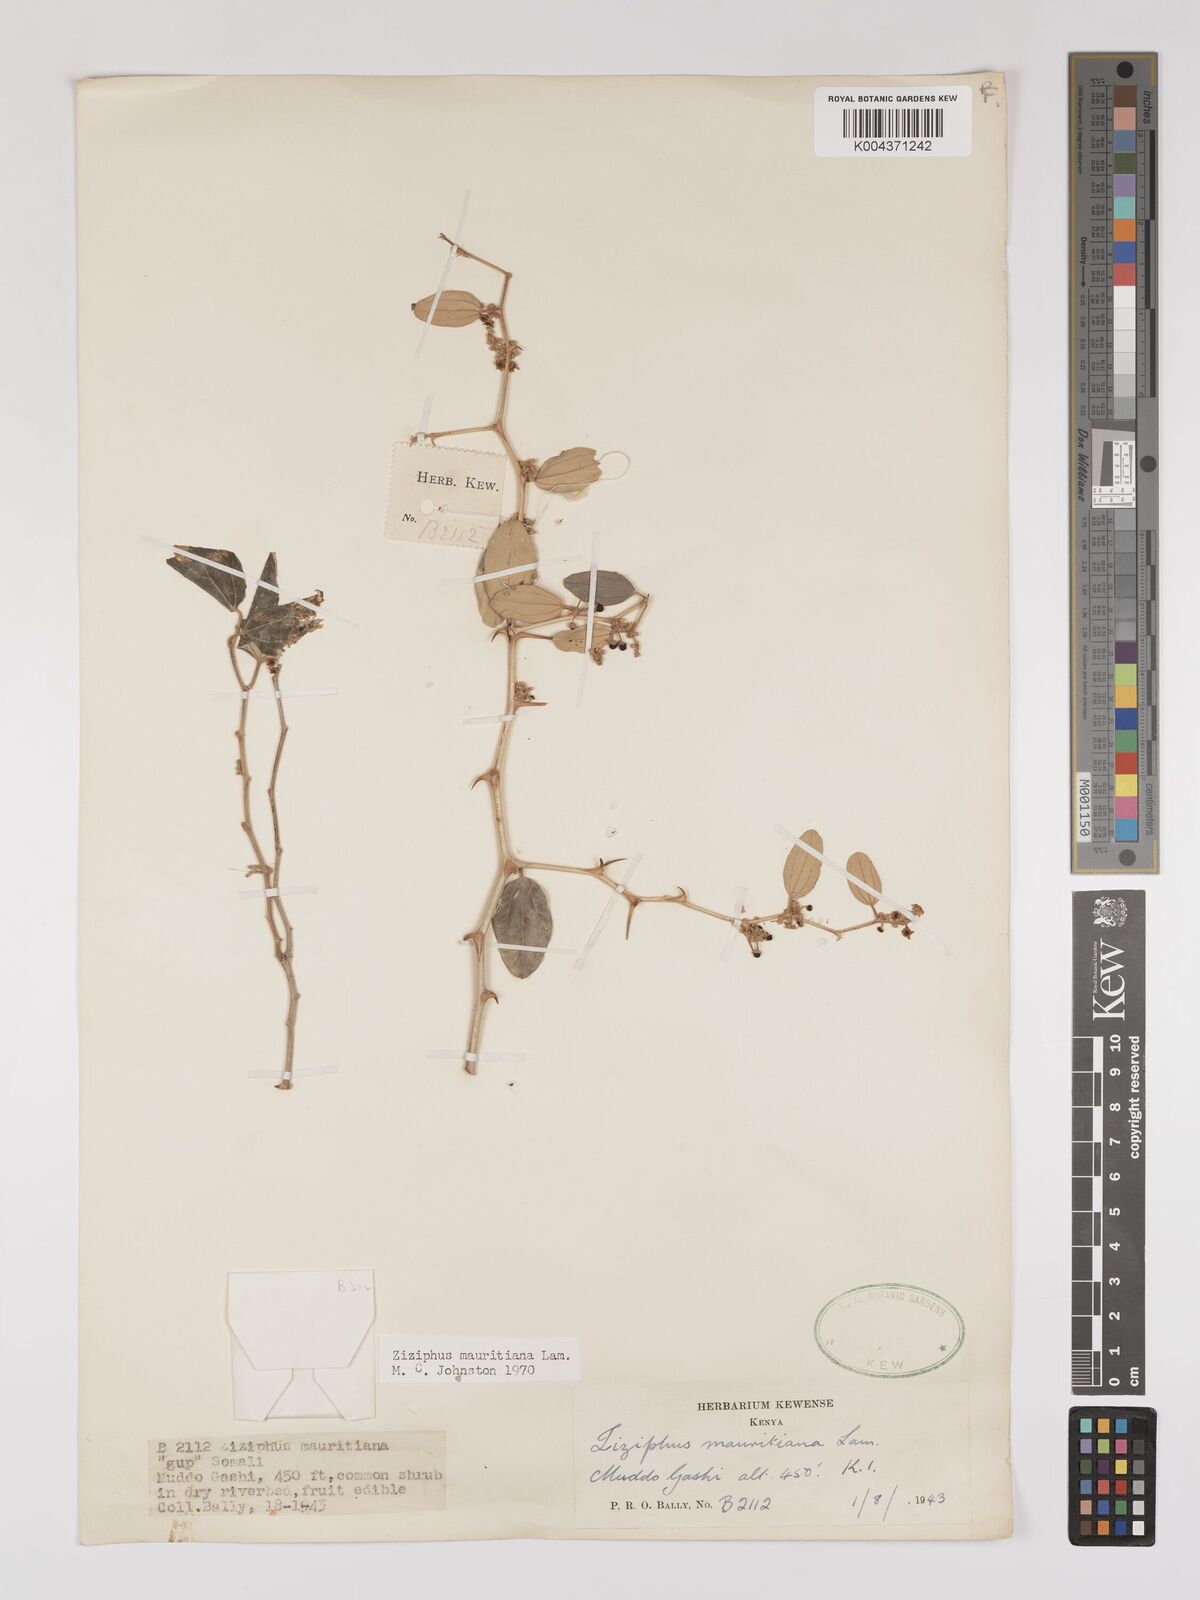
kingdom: Plantae
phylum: Tracheophyta
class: Magnoliopsida
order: Rosales
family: Rhamnaceae
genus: Ziziphus
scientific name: Ziziphus mauritiana
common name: Indian jujube
